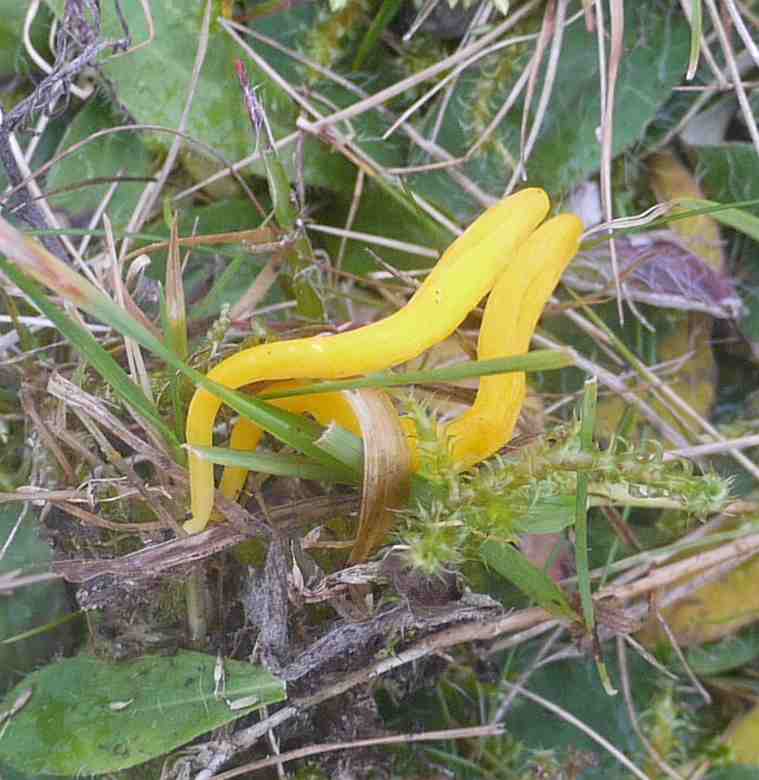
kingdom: Fungi
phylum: Basidiomycota
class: Agaricomycetes
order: Agaricales
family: Clavariaceae
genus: Clavulinopsis
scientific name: Clavulinopsis helvola
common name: orangegul køllesvamp
